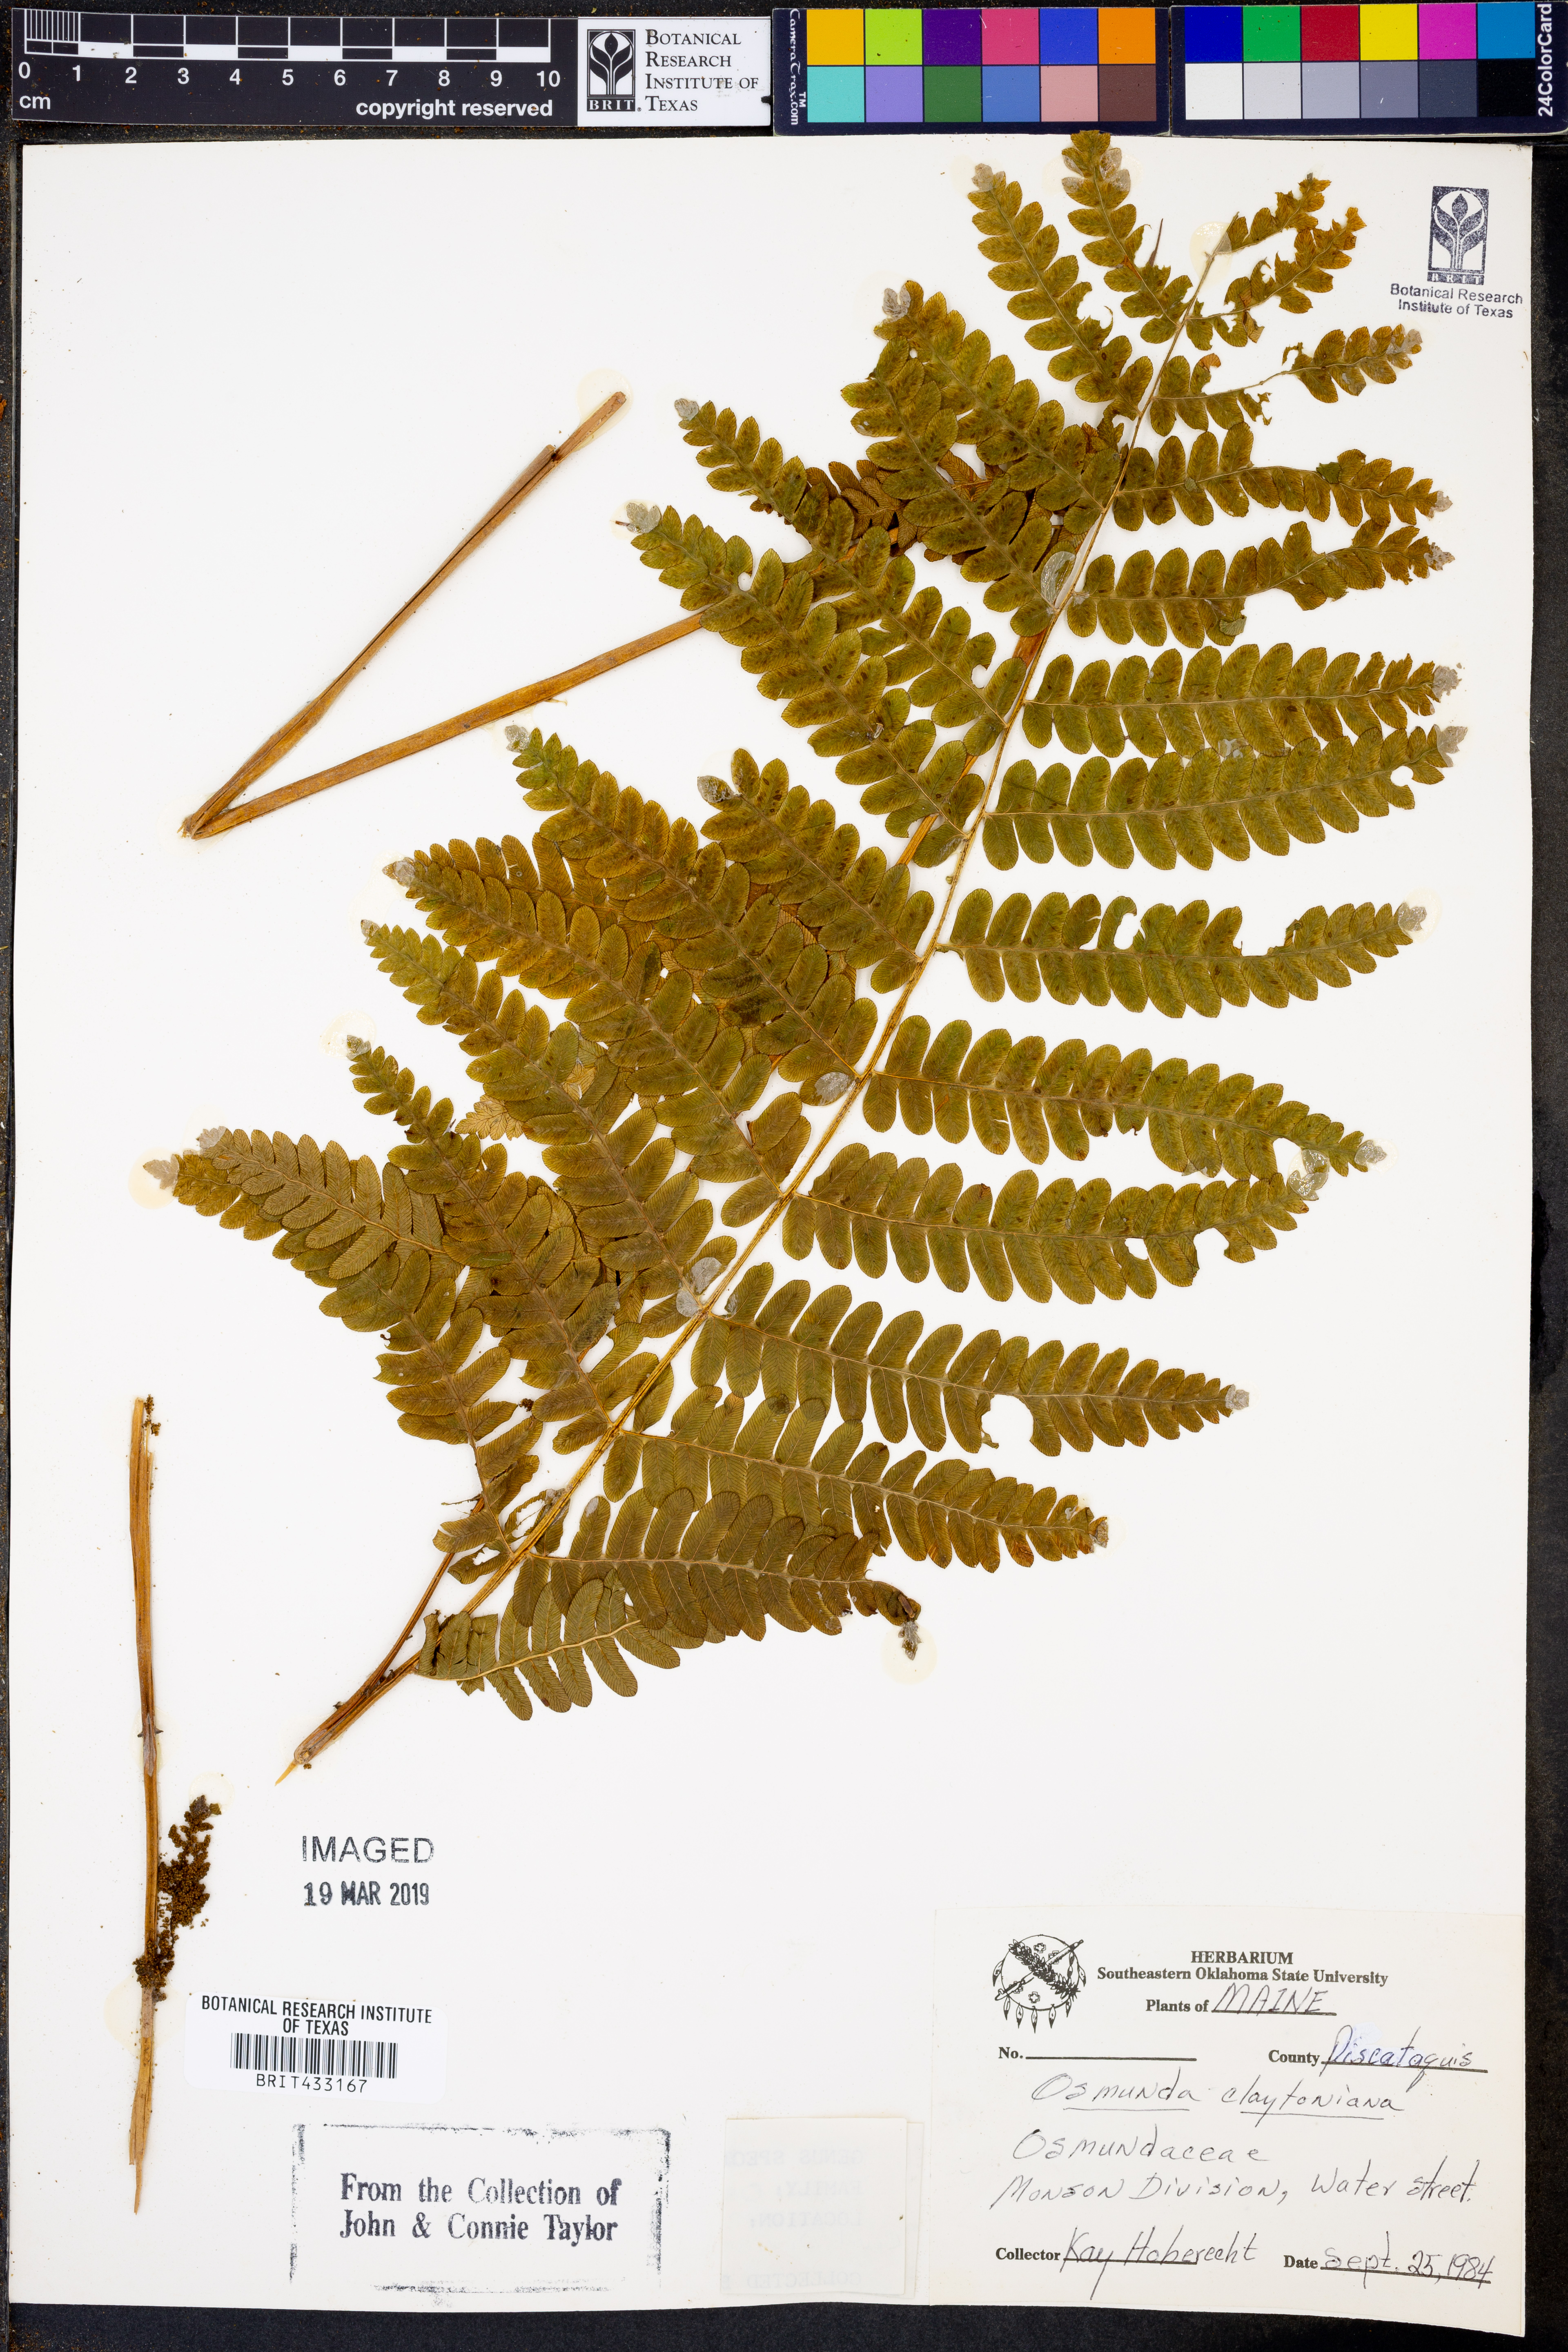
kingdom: Plantae
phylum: Tracheophyta
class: Polypodiopsida
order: Osmundales
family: Osmundaceae
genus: Claytosmunda
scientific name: Claytosmunda claytoniana
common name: Clayton's fern
